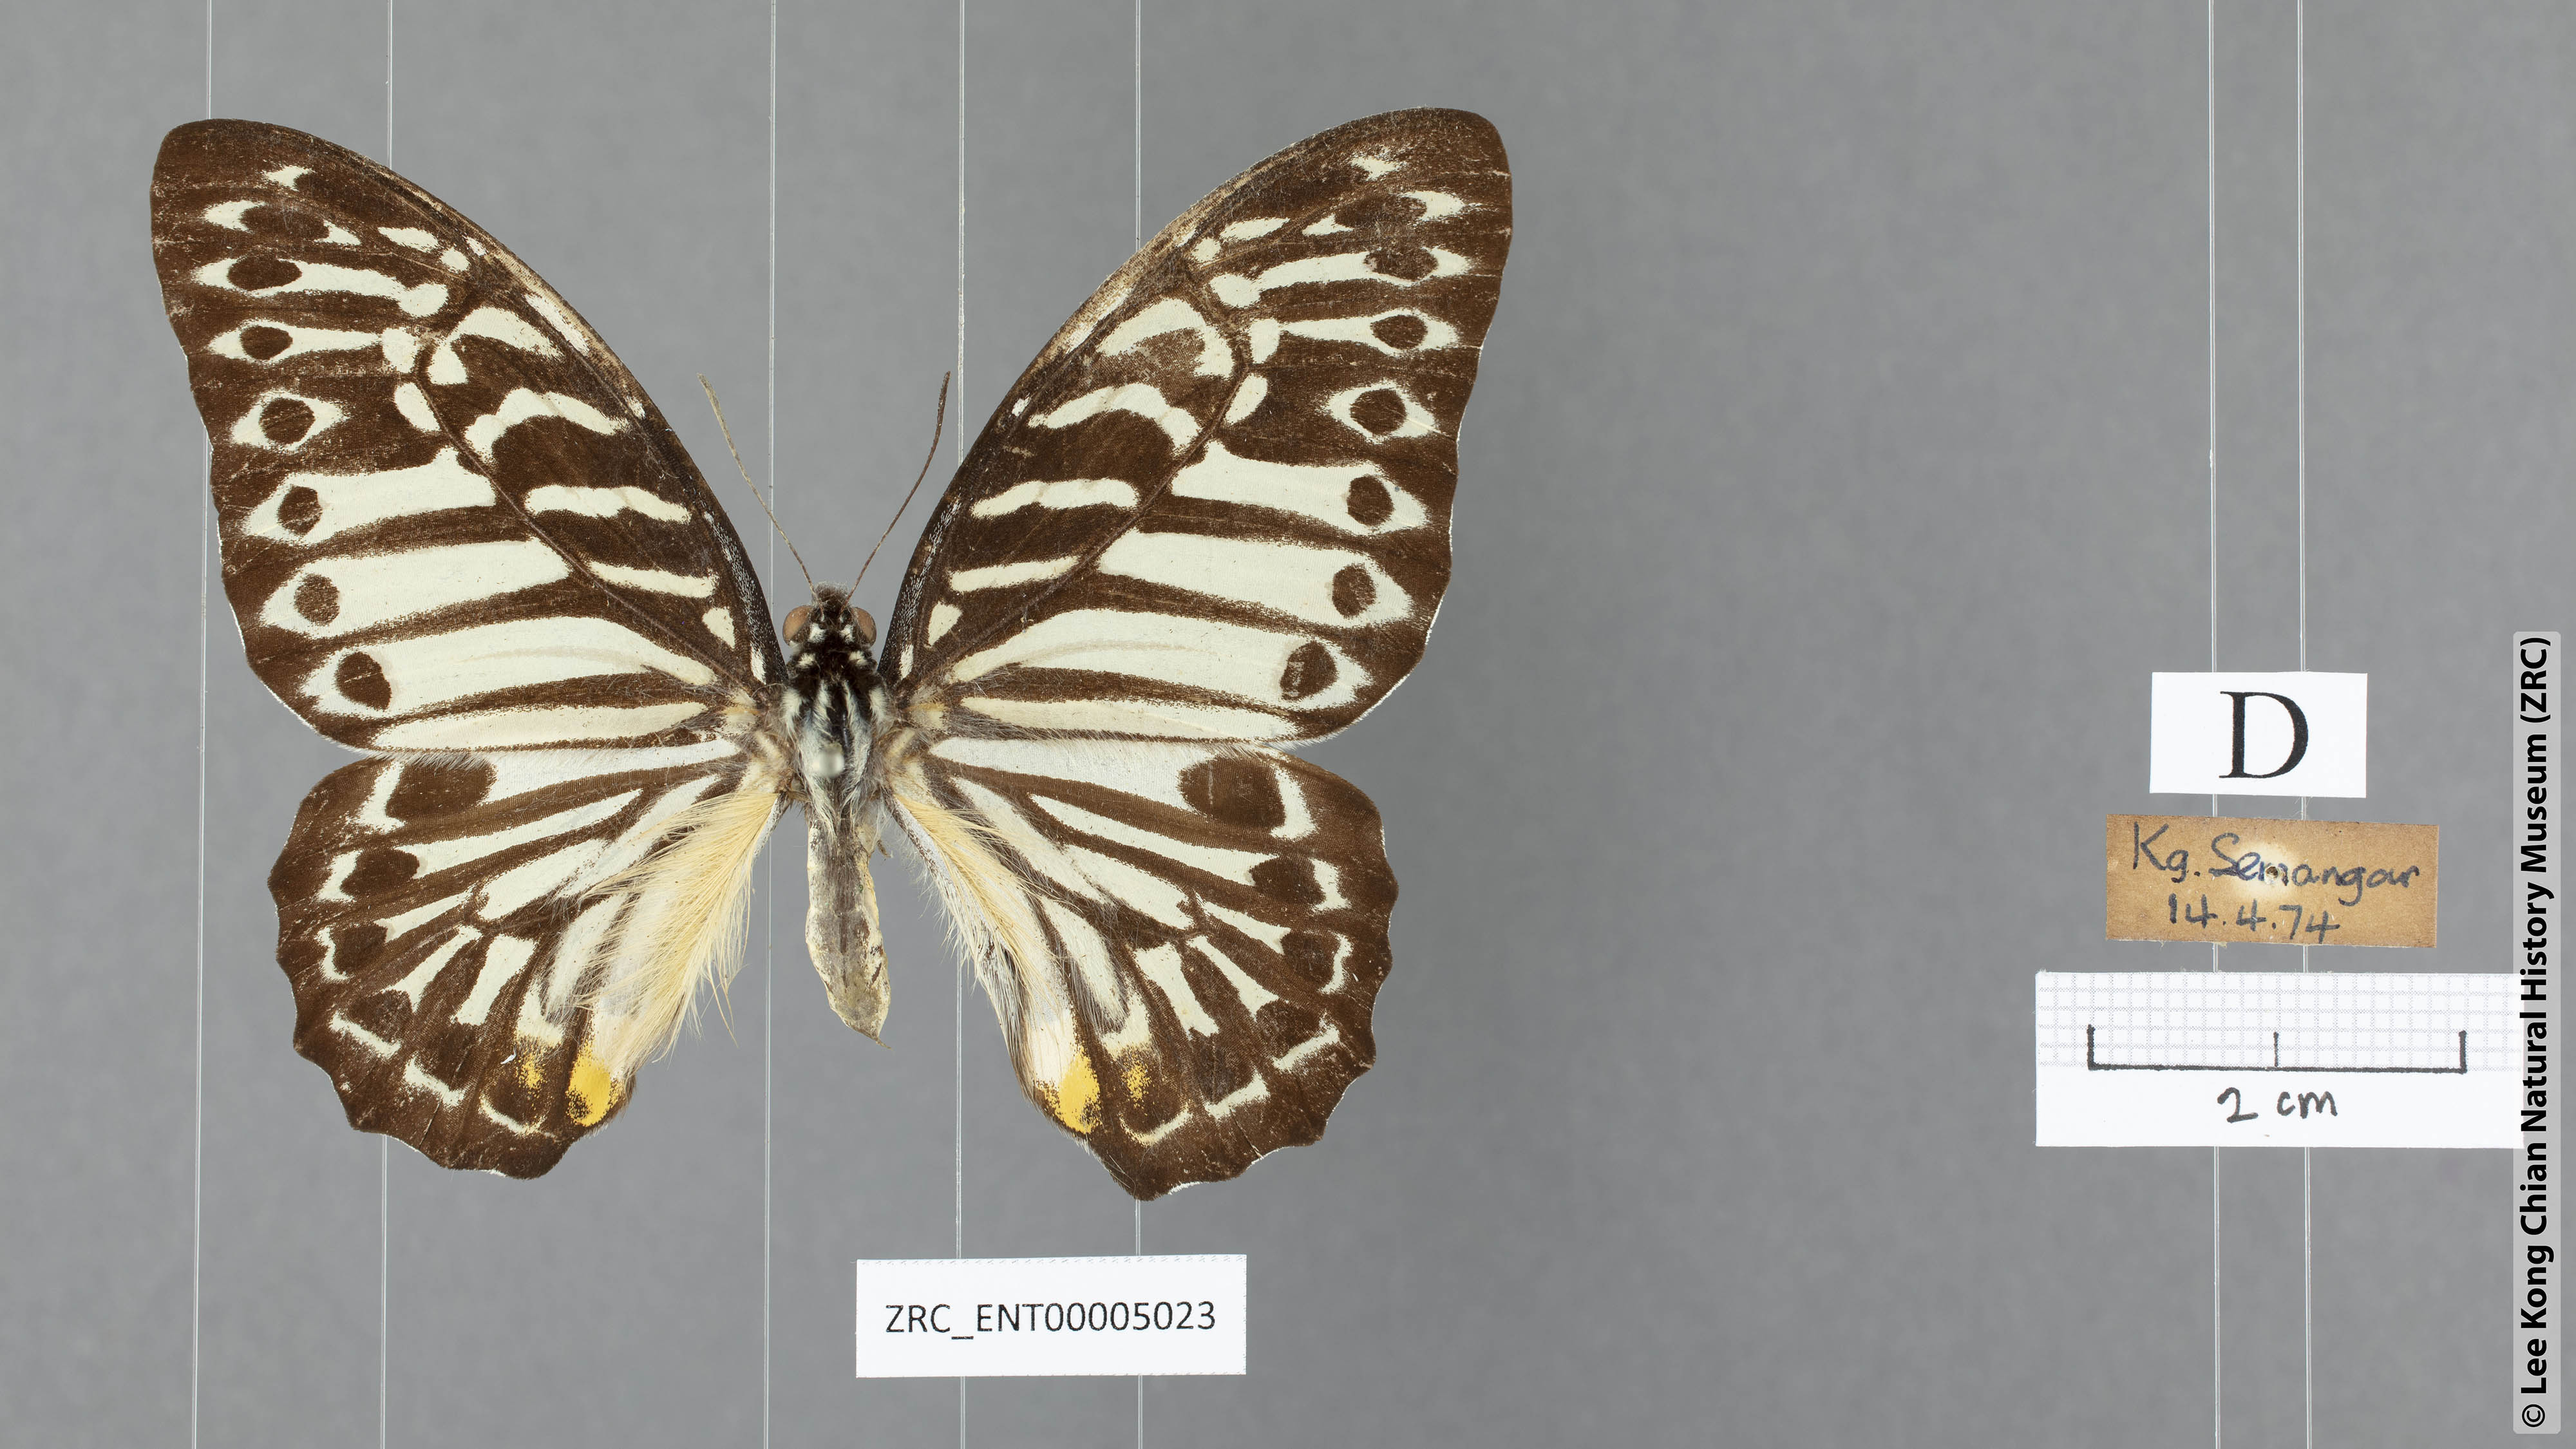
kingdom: Animalia
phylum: Arthropoda
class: Insecta
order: Lepidoptera
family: Papilionidae
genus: Graphium
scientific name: Graphium delesserti
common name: Malayan zebra
